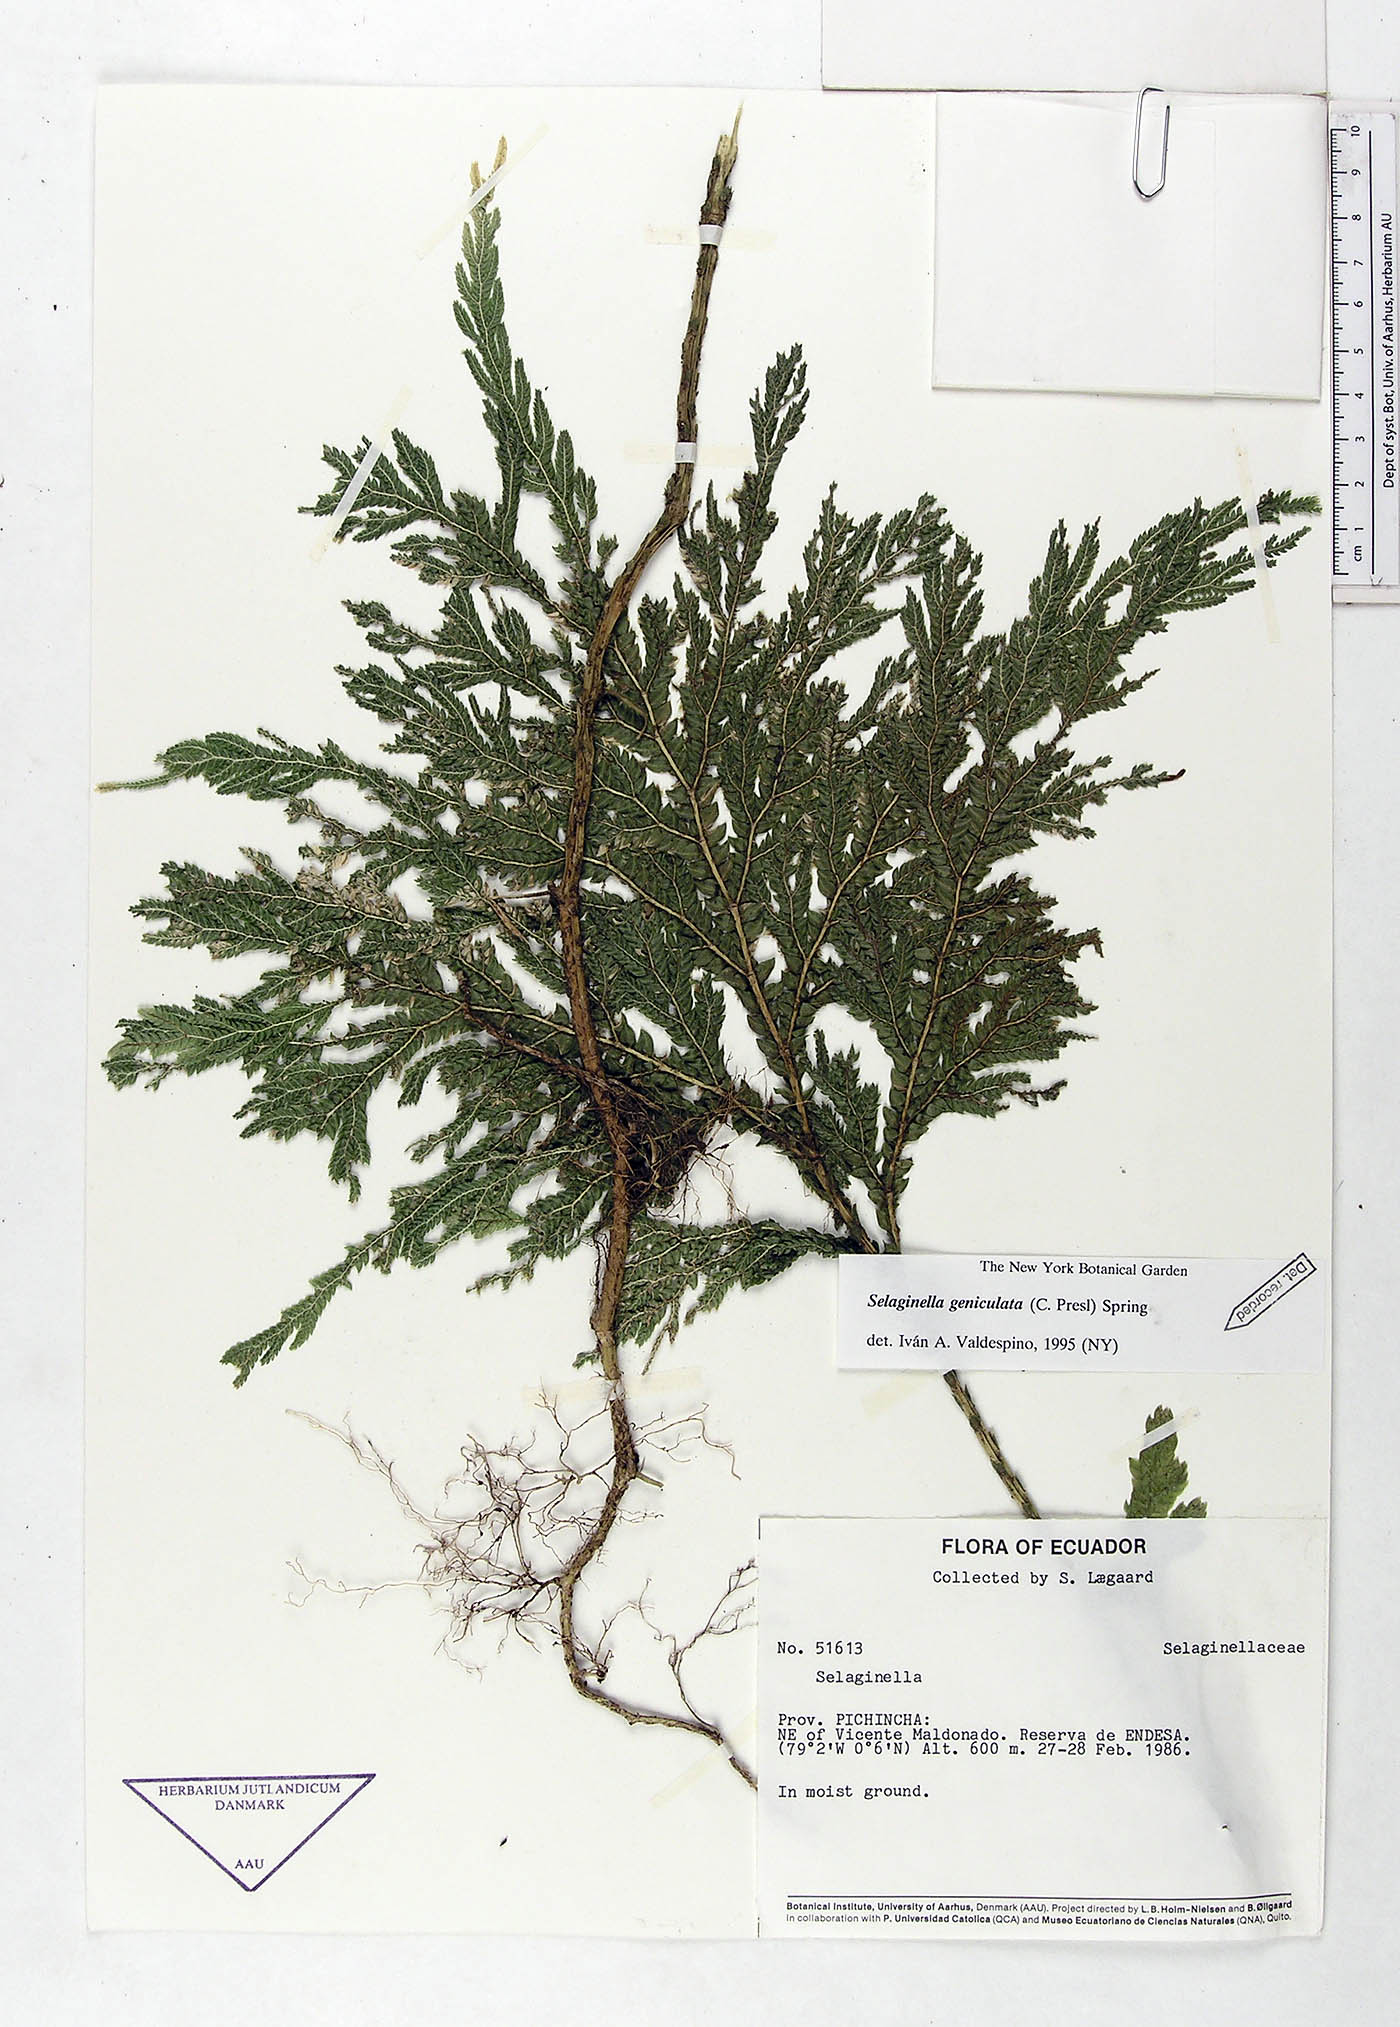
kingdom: Plantae
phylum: Tracheophyta
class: Lycopodiopsida
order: Selaginellales
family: Selaginellaceae
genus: Selaginella
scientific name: Selaginella geniculata
